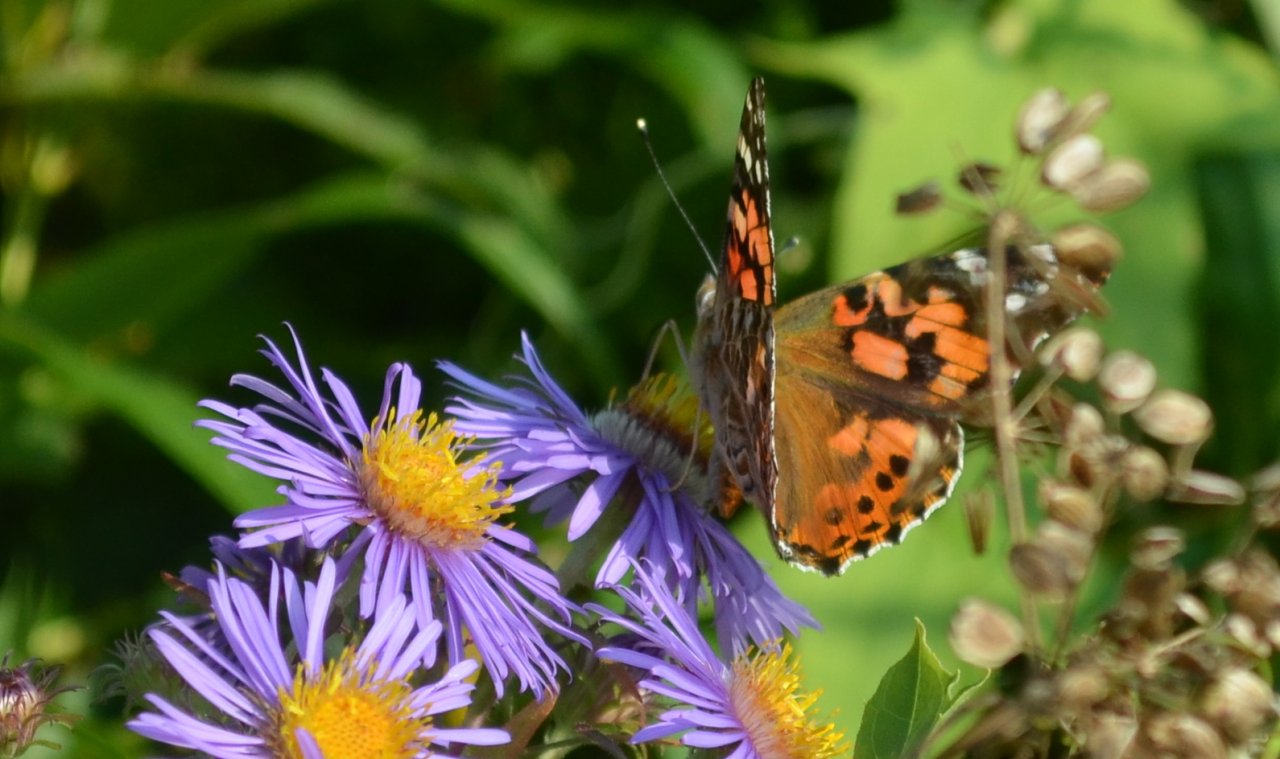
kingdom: Animalia
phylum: Arthropoda
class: Insecta
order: Lepidoptera
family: Nymphalidae
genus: Vanessa
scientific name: Vanessa cardui
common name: Painted Lady
